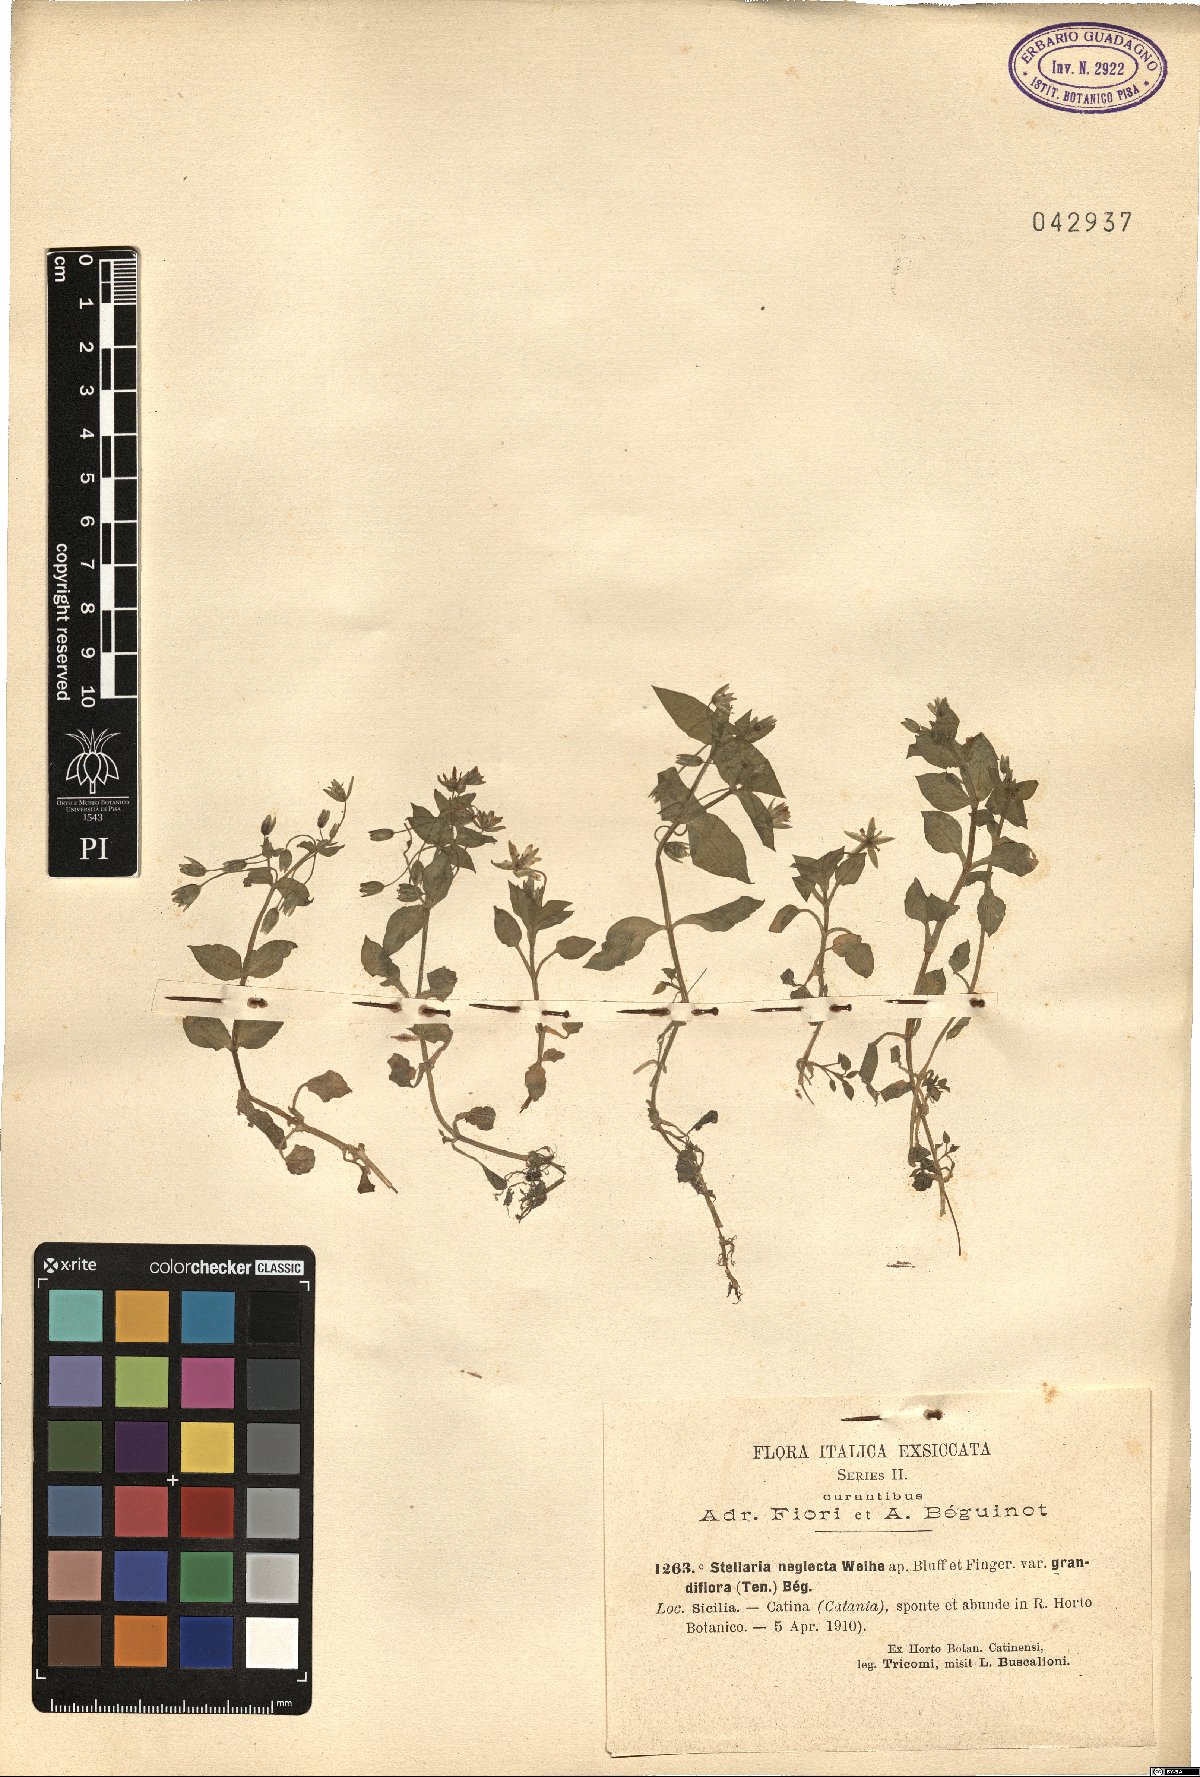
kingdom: Plantae
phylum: Tracheophyta
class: Magnoliopsida
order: Caryophyllales
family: Caryophyllaceae
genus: Stellaria
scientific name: Stellaria neglecta
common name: Greater chickweed
